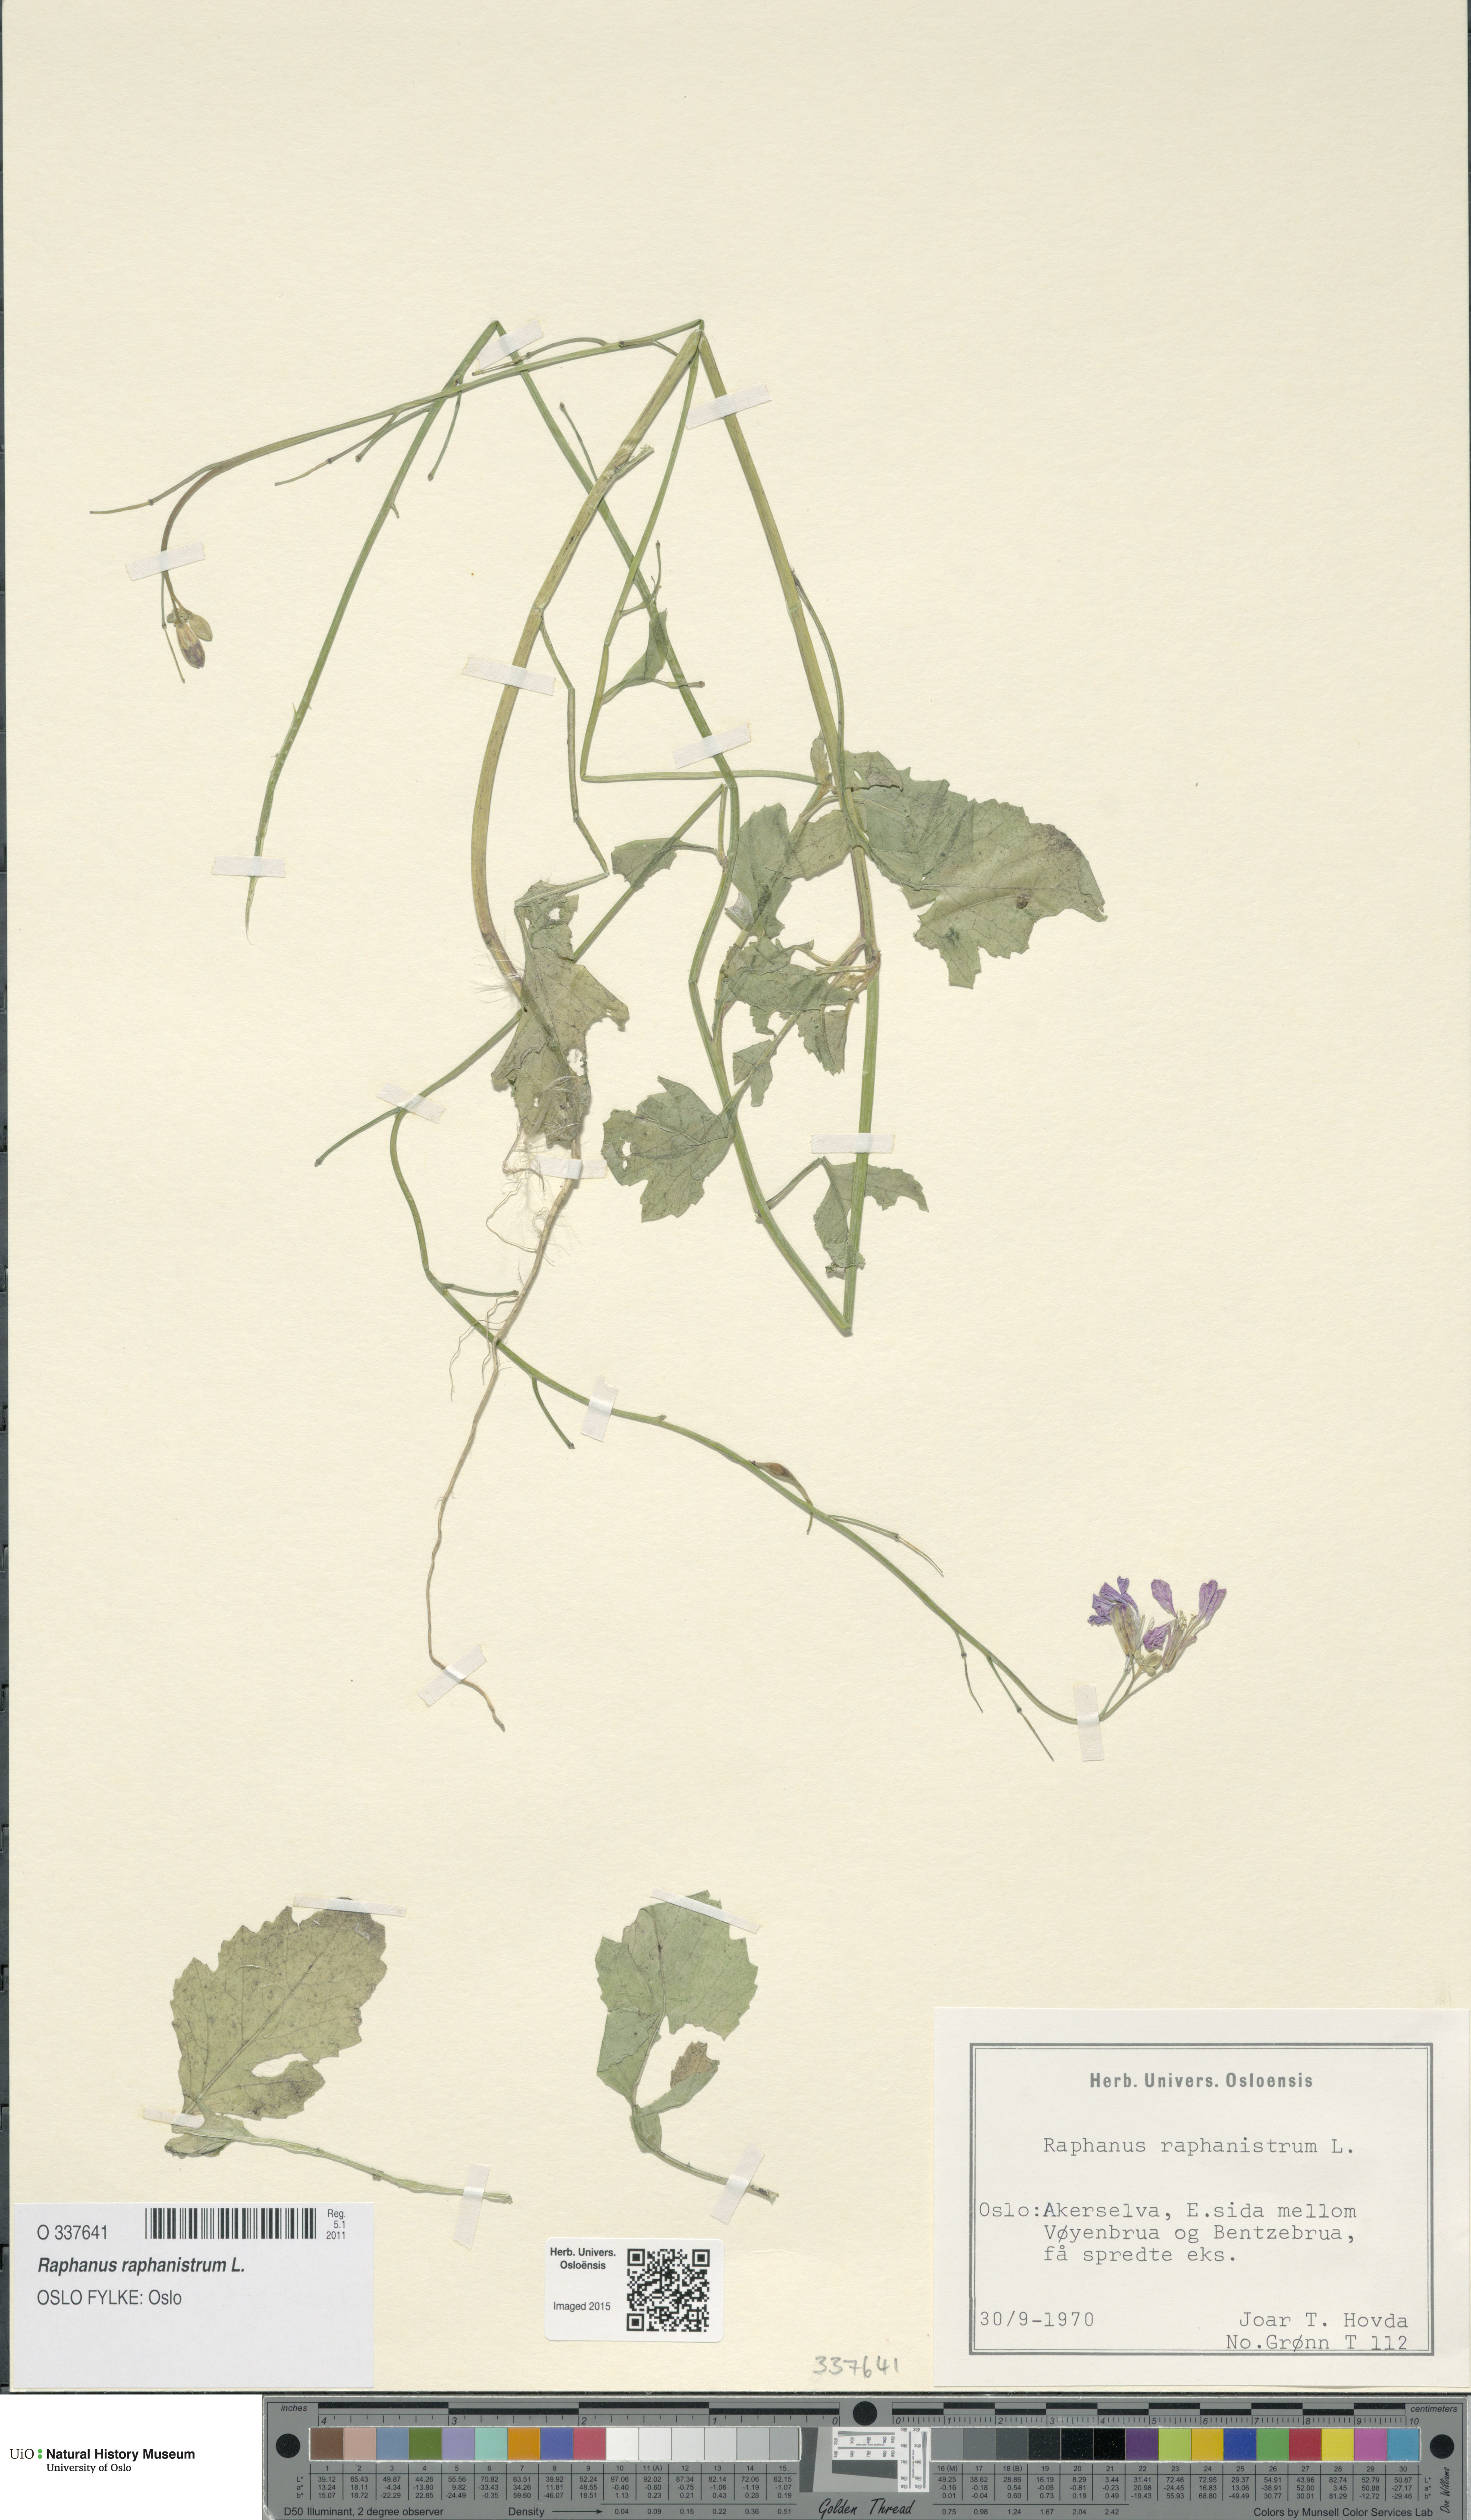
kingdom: Plantae
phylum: Tracheophyta
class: Magnoliopsida
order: Brassicales
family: Brassicaceae
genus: Raphanus
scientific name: Raphanus raphanistrum
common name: Wild radish
